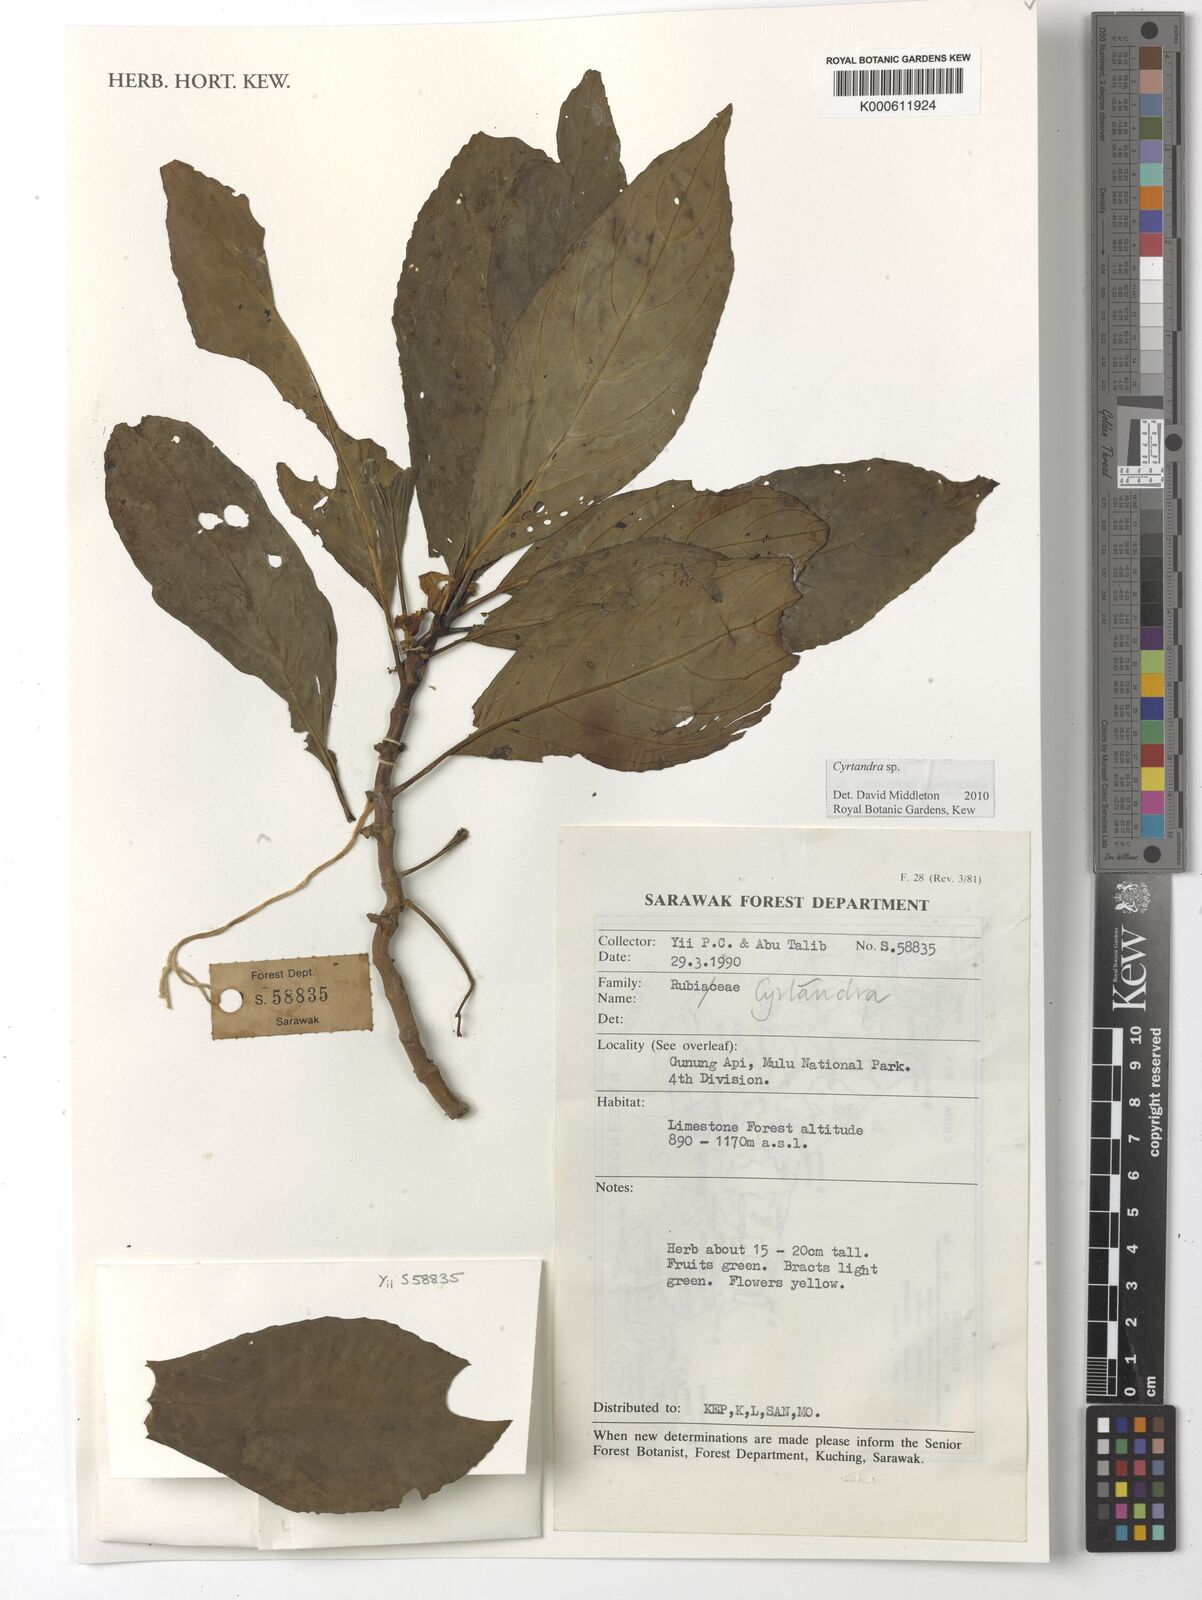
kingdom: Plantae
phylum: Tracheophyta
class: Magnoliopsida
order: Lamiales
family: Gesneriaceae
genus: Cyrtandra
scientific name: Cyrtandra
